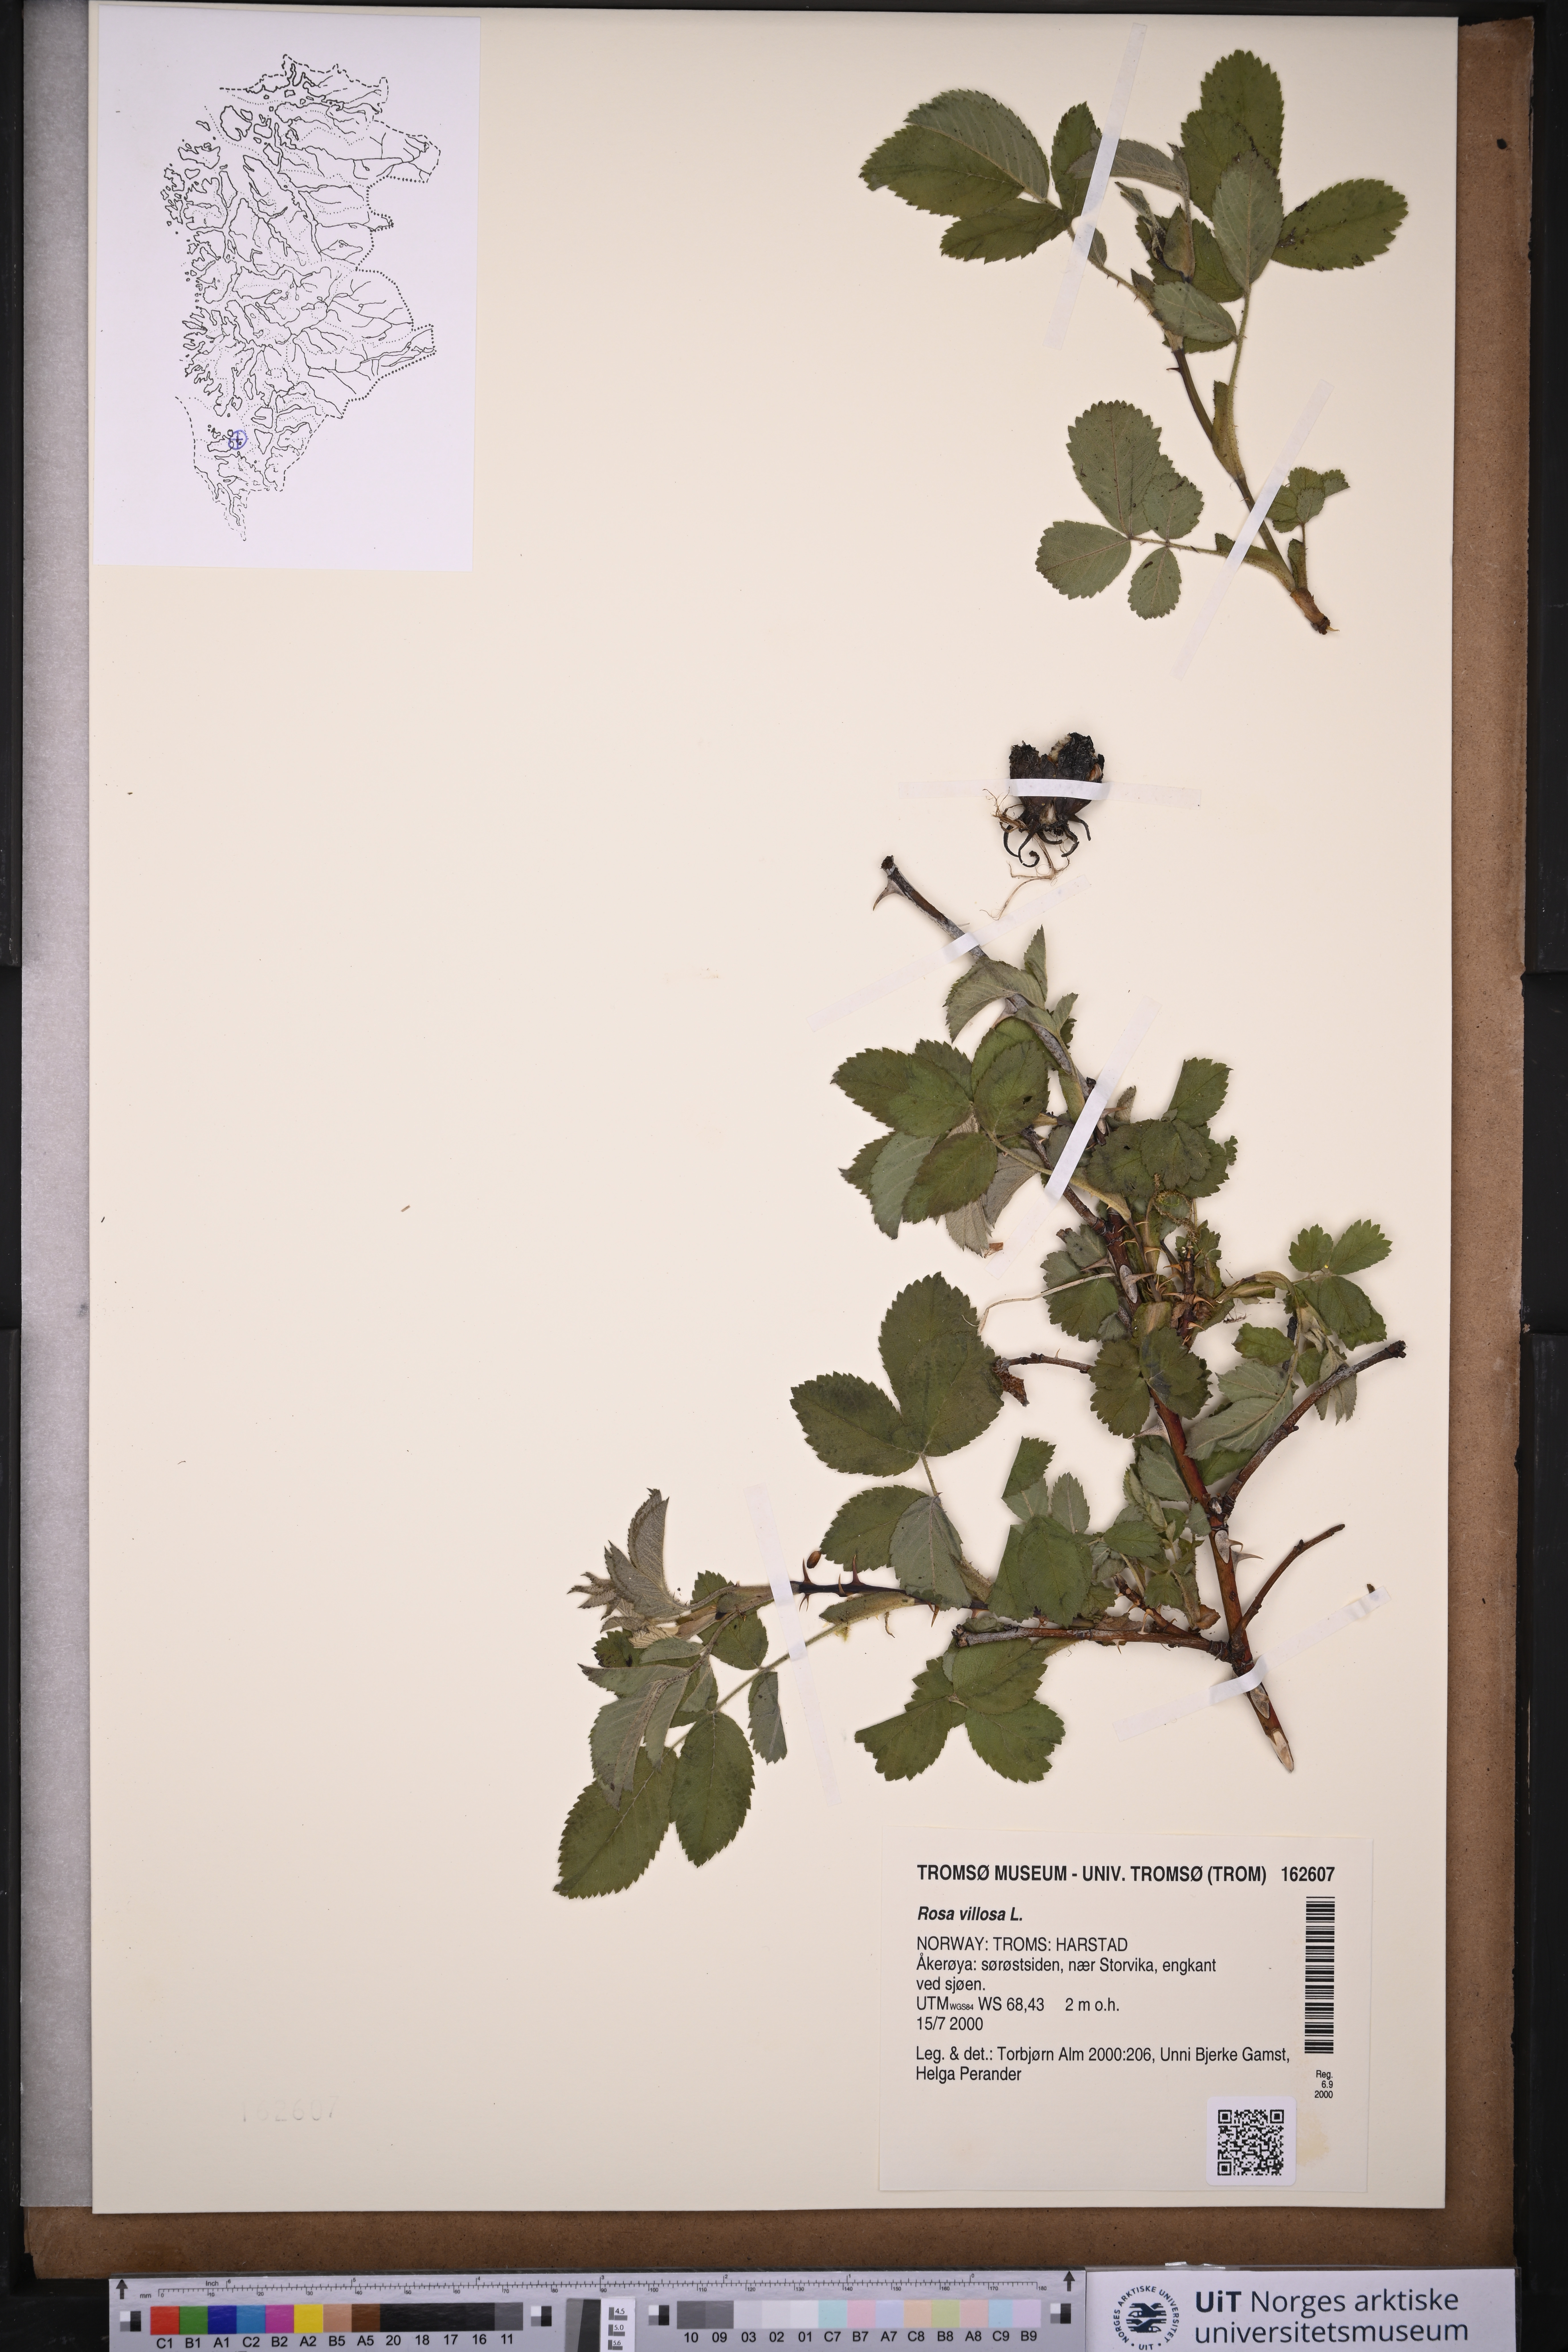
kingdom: Plantae
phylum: Tracheophyta
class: Magnoliopsida
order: Rosales
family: Rosaceae
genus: Rosa
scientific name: Rosa villosa
